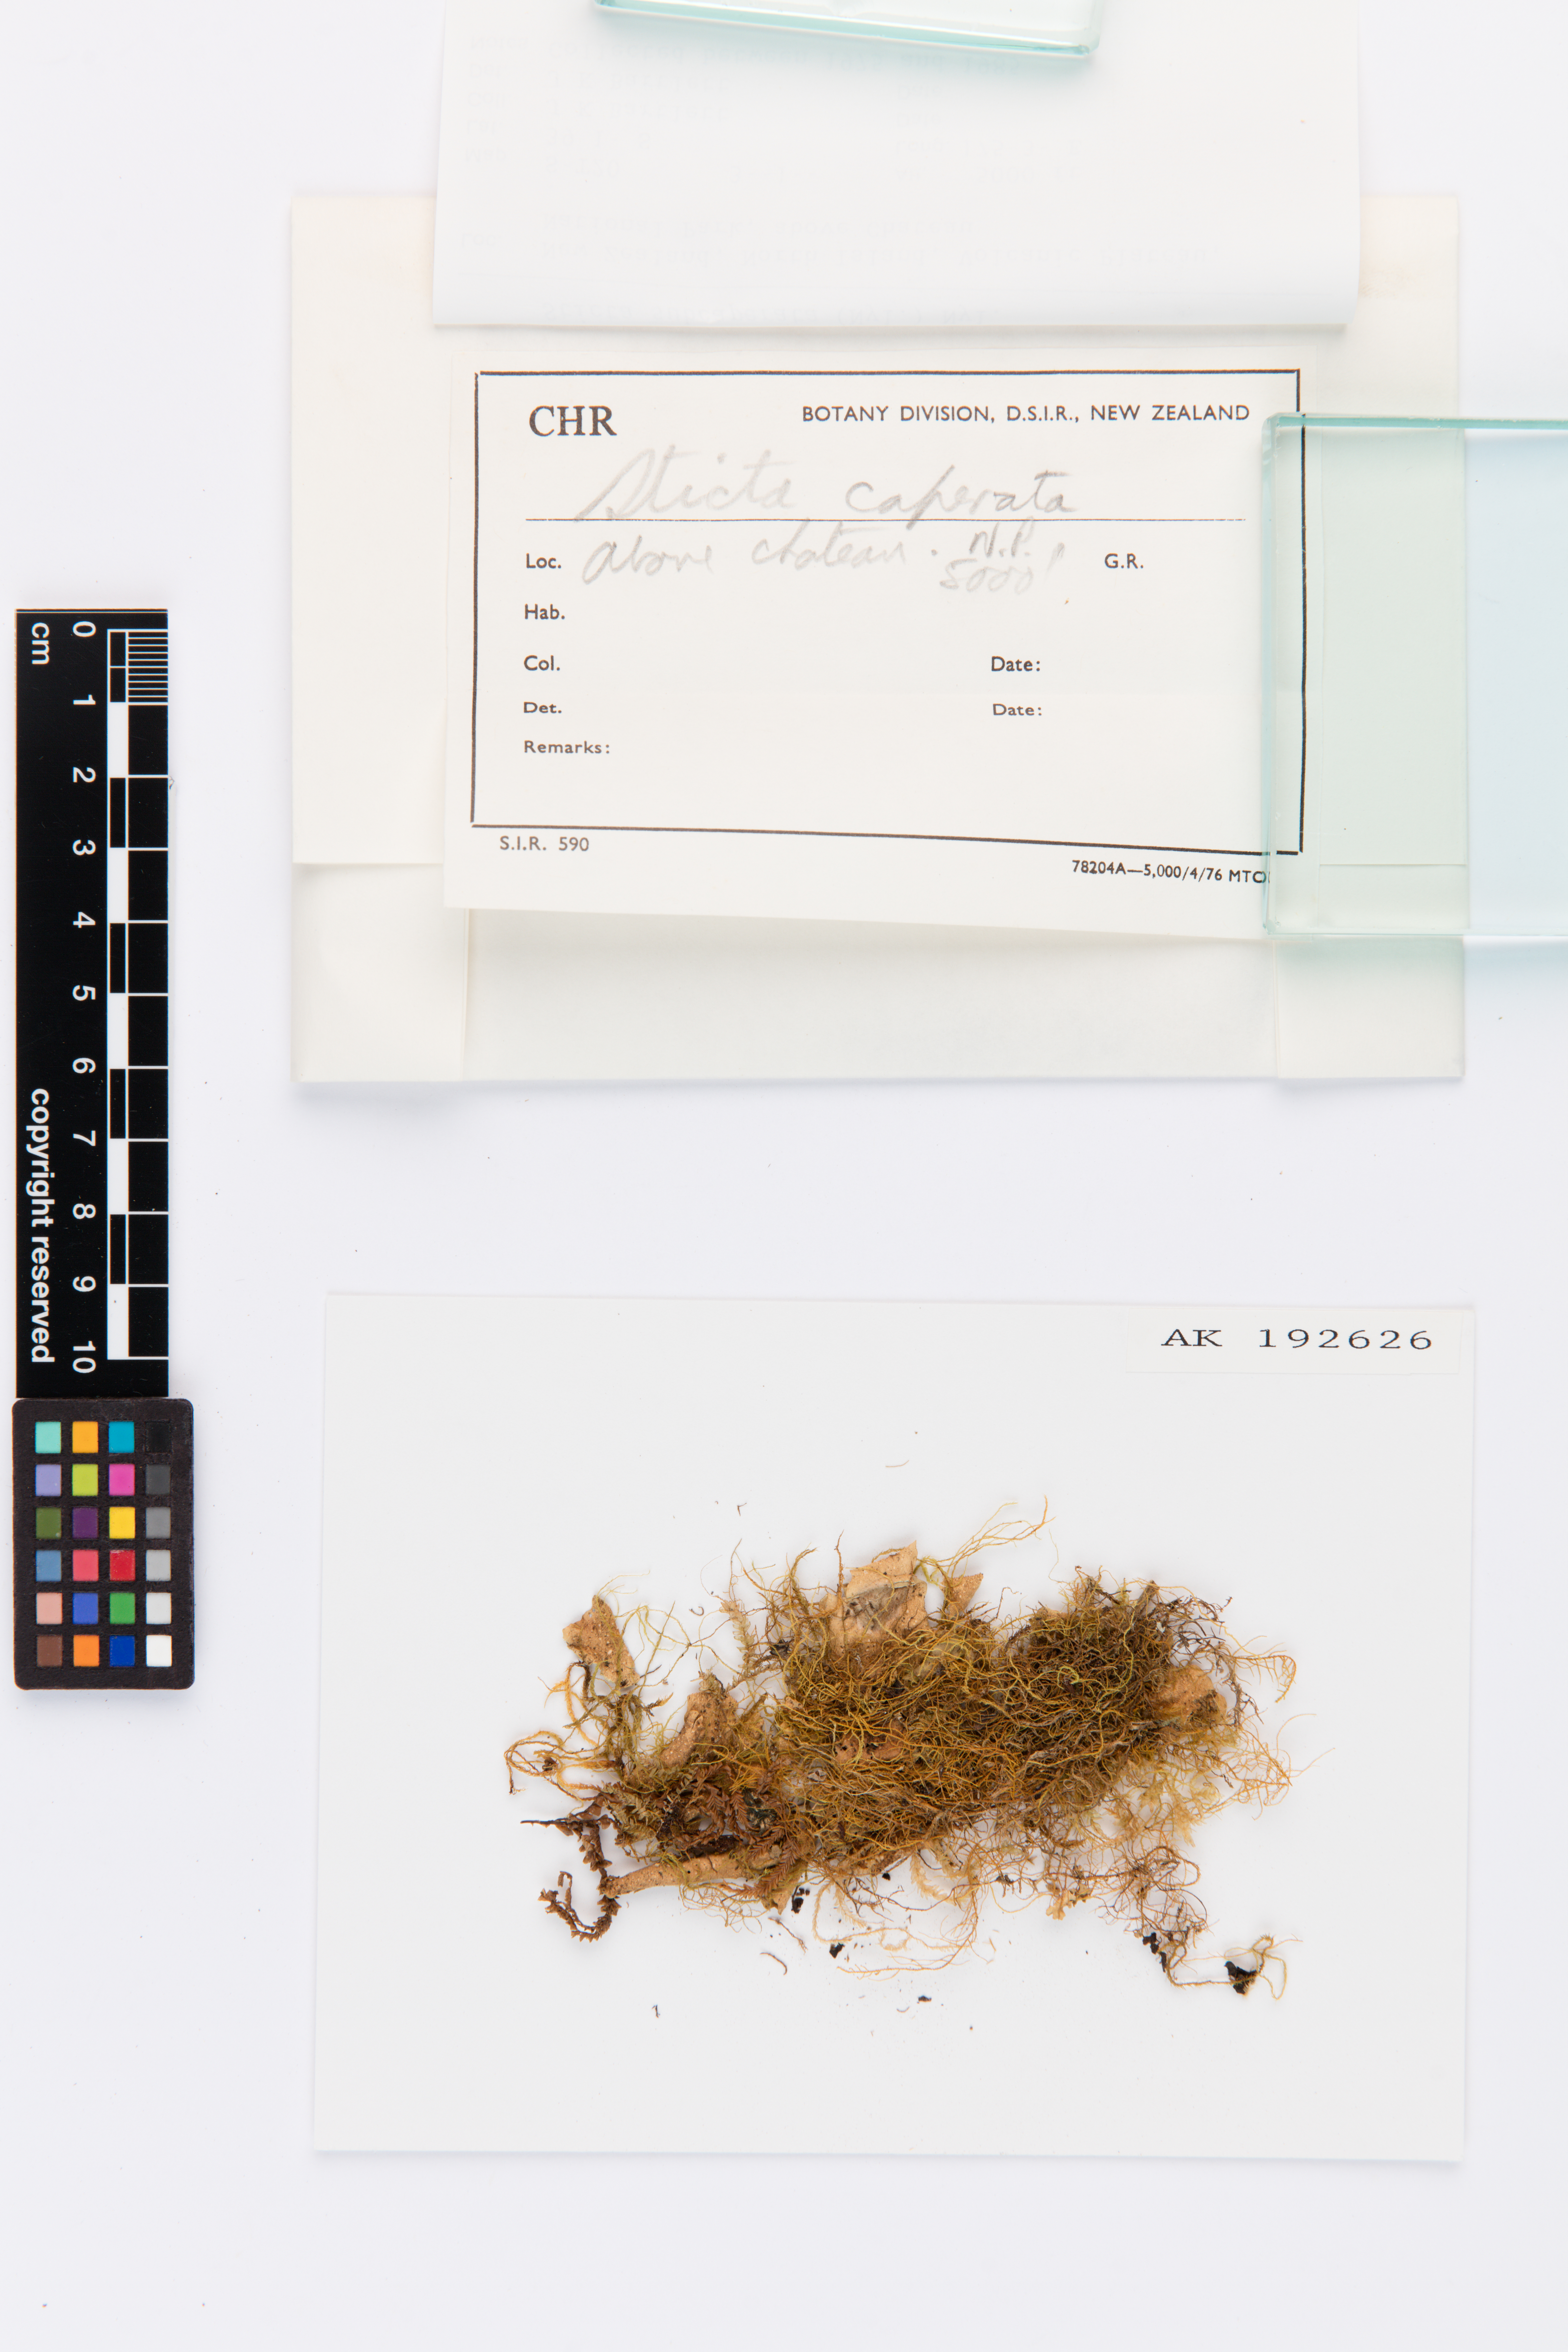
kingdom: Fungi
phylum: Ascomycota
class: Lecanoromycetes
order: Peltigerales
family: Lobariaceae
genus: Sticta
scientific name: Sticta subcaperata
